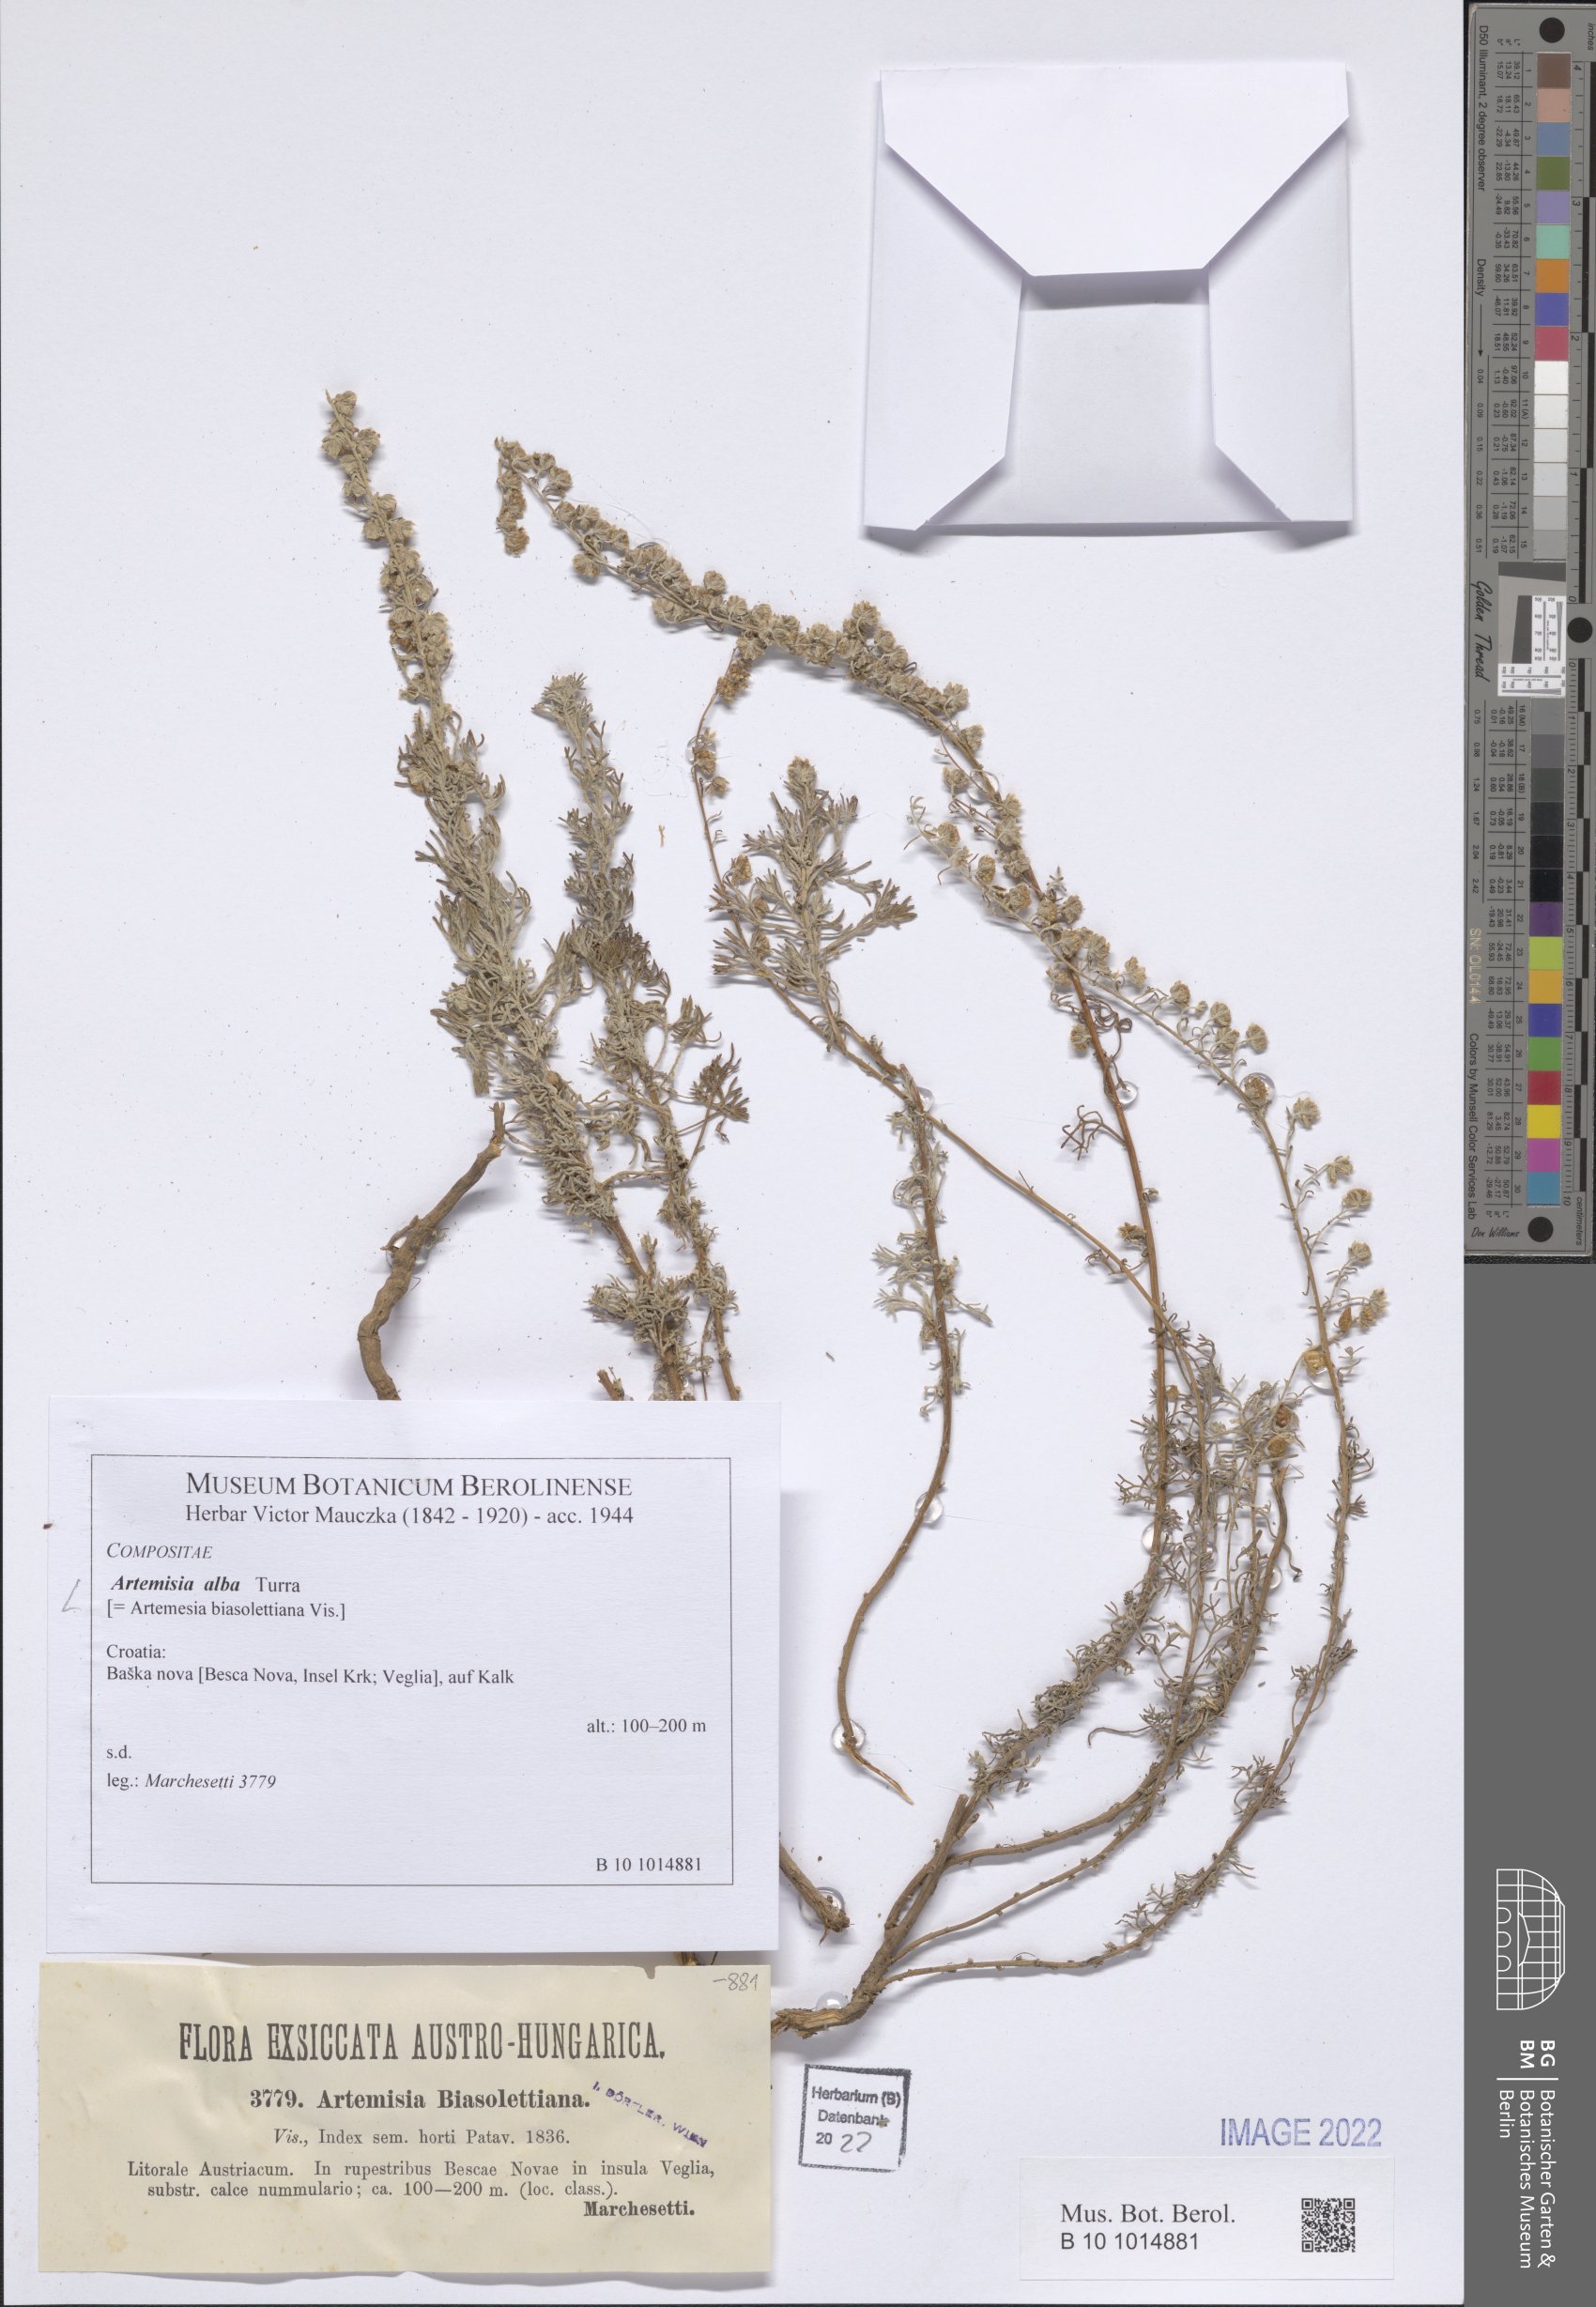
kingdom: Plantae
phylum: Tracheophyta
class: Magnoliopsida
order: Asterales
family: Asteraceae
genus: Artemisia
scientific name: Artemisia alba
